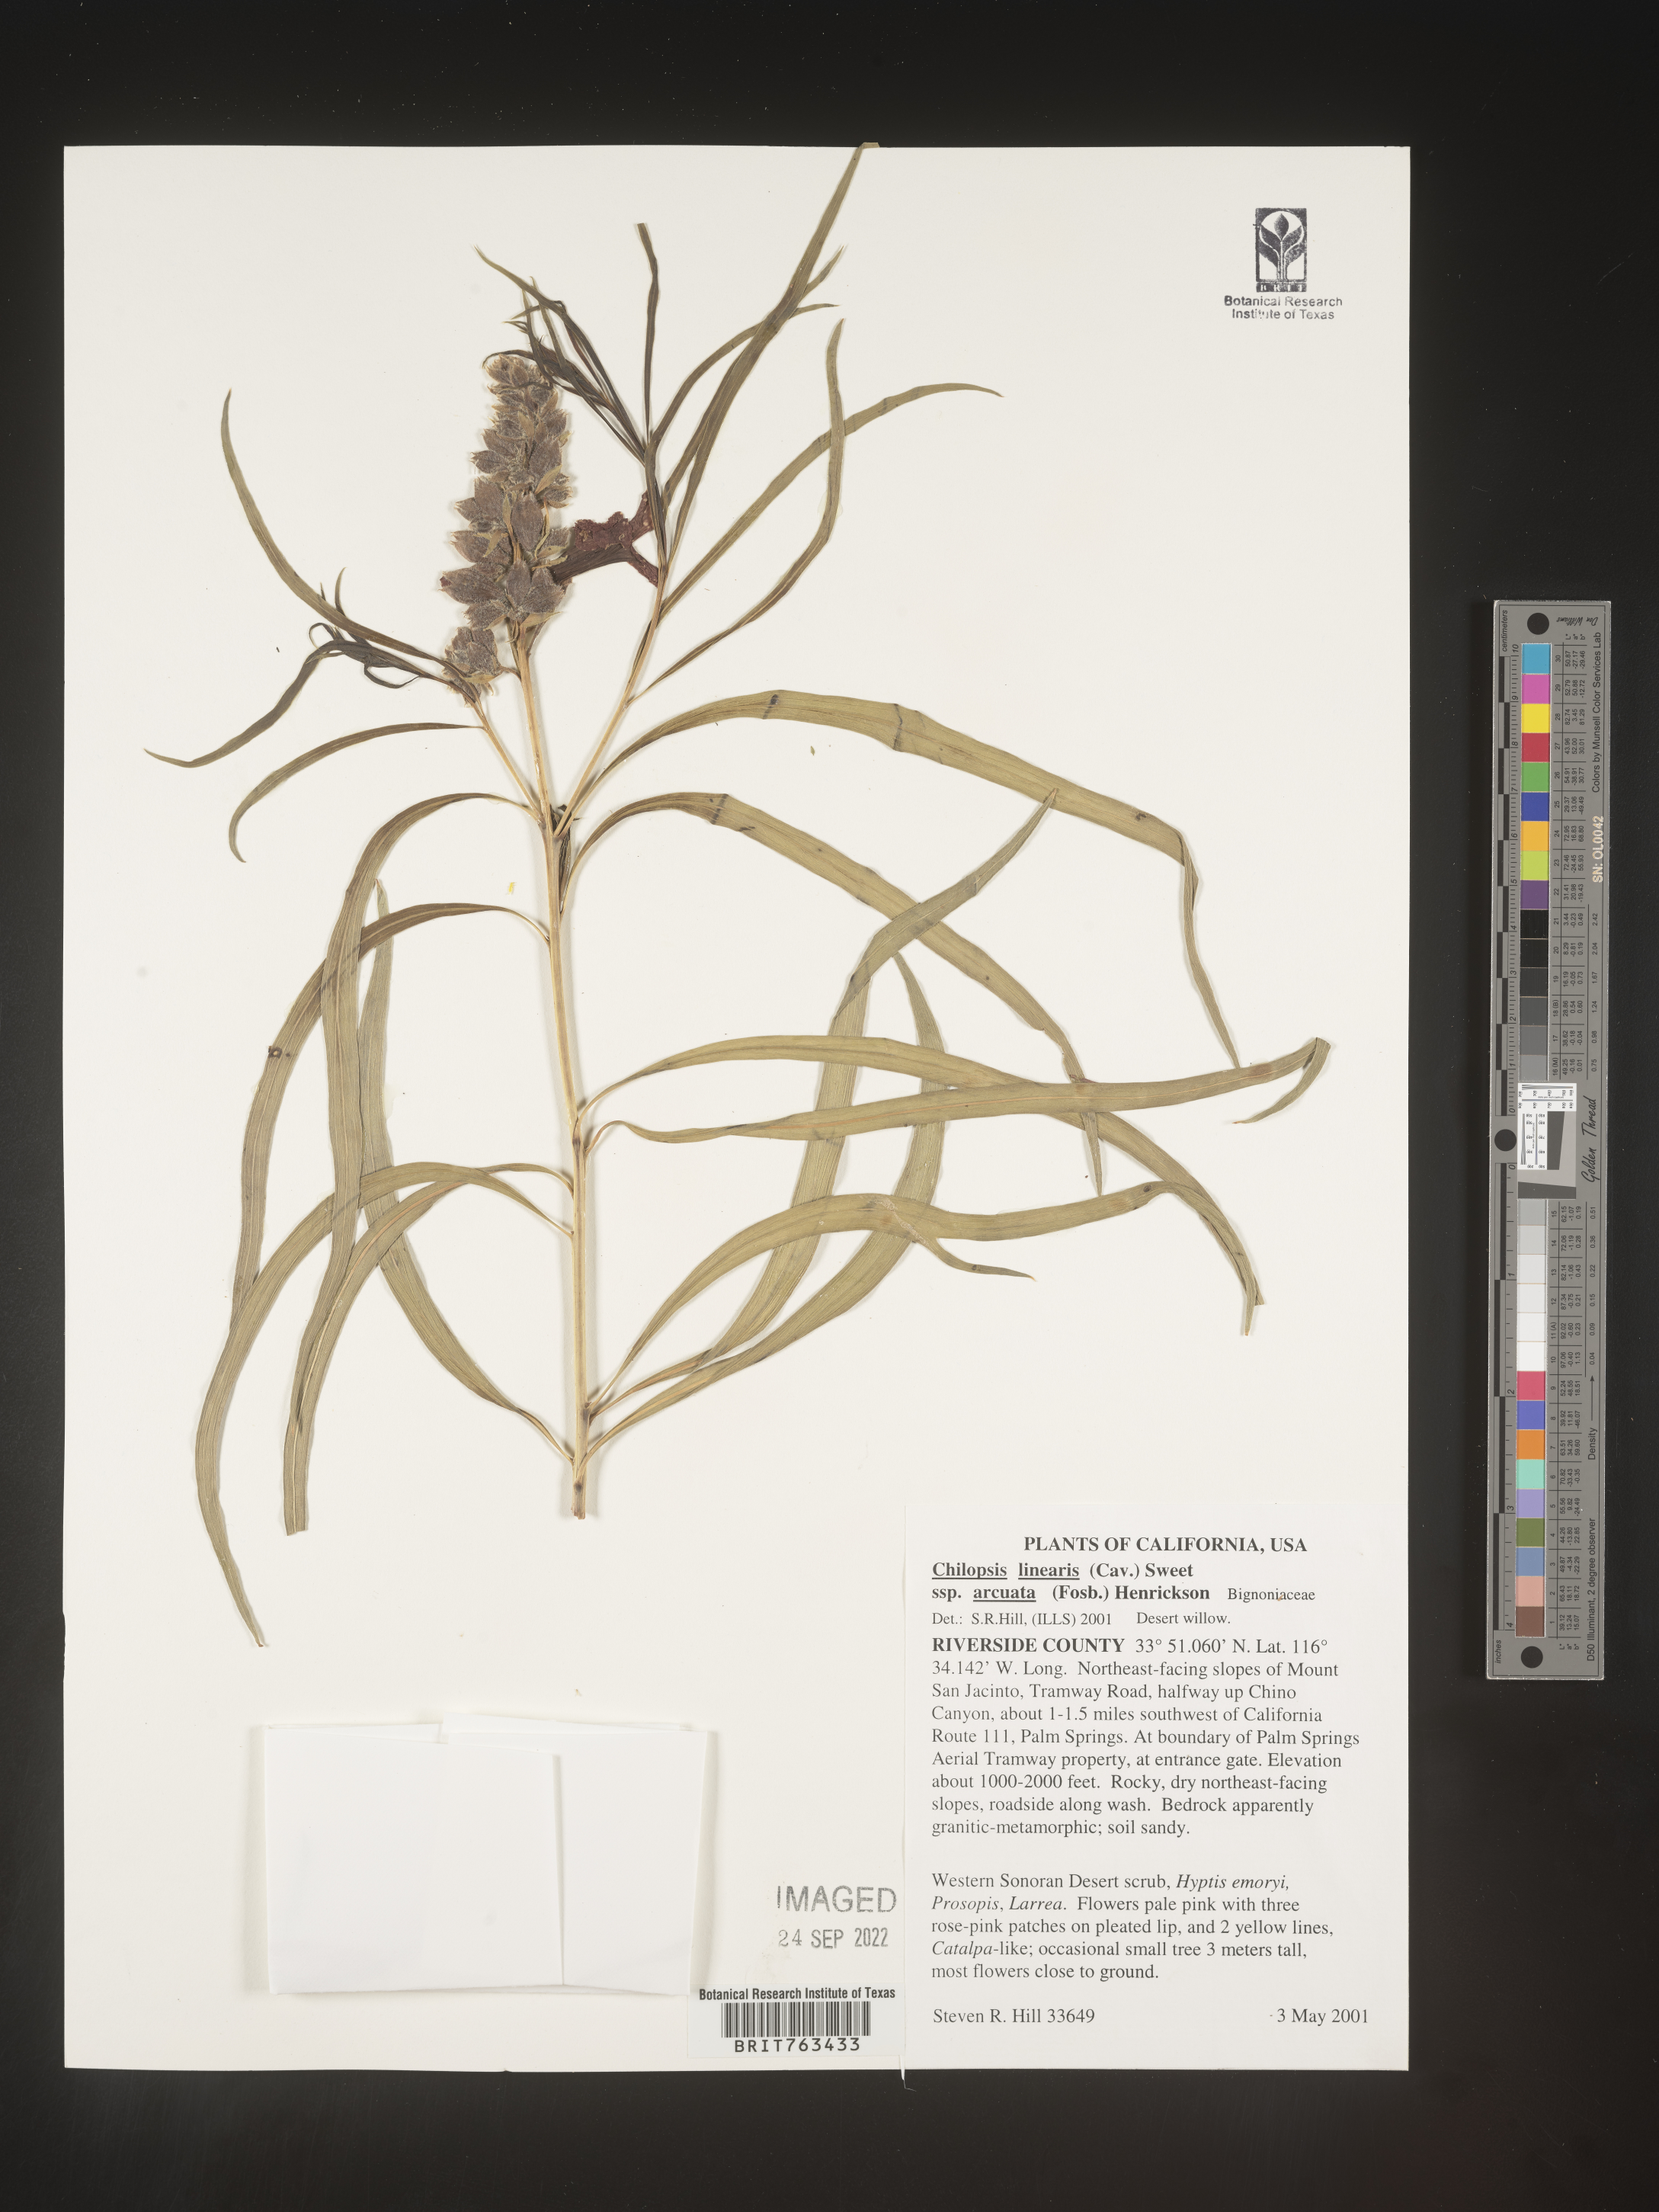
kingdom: Plantae
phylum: Tracheophyta
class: Magnoliopsida
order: Lamiales
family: Bignoniaceae
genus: Chilopsis
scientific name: Chilopsis linearis
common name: Desert-willow
